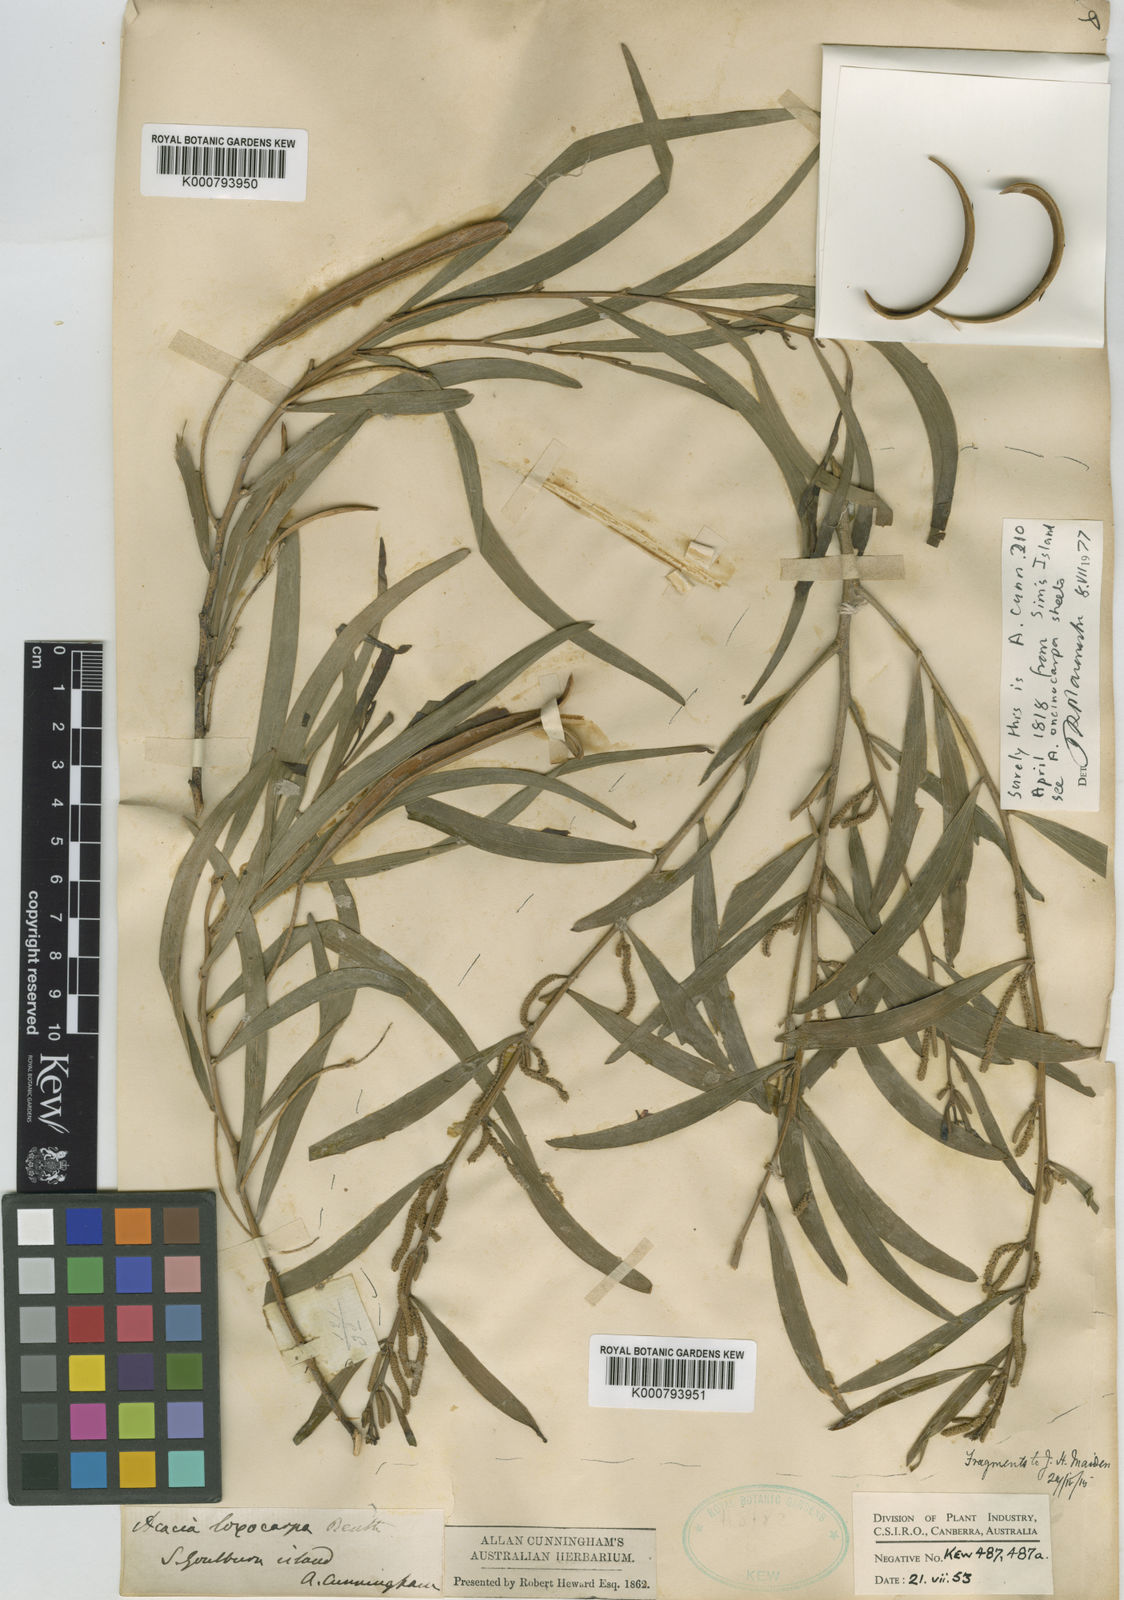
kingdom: Plantae
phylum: Tracheophyta
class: Magnoliopsida
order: Fabales
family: Fabaceae
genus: Acacia
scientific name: Acacia oncinocarpa
